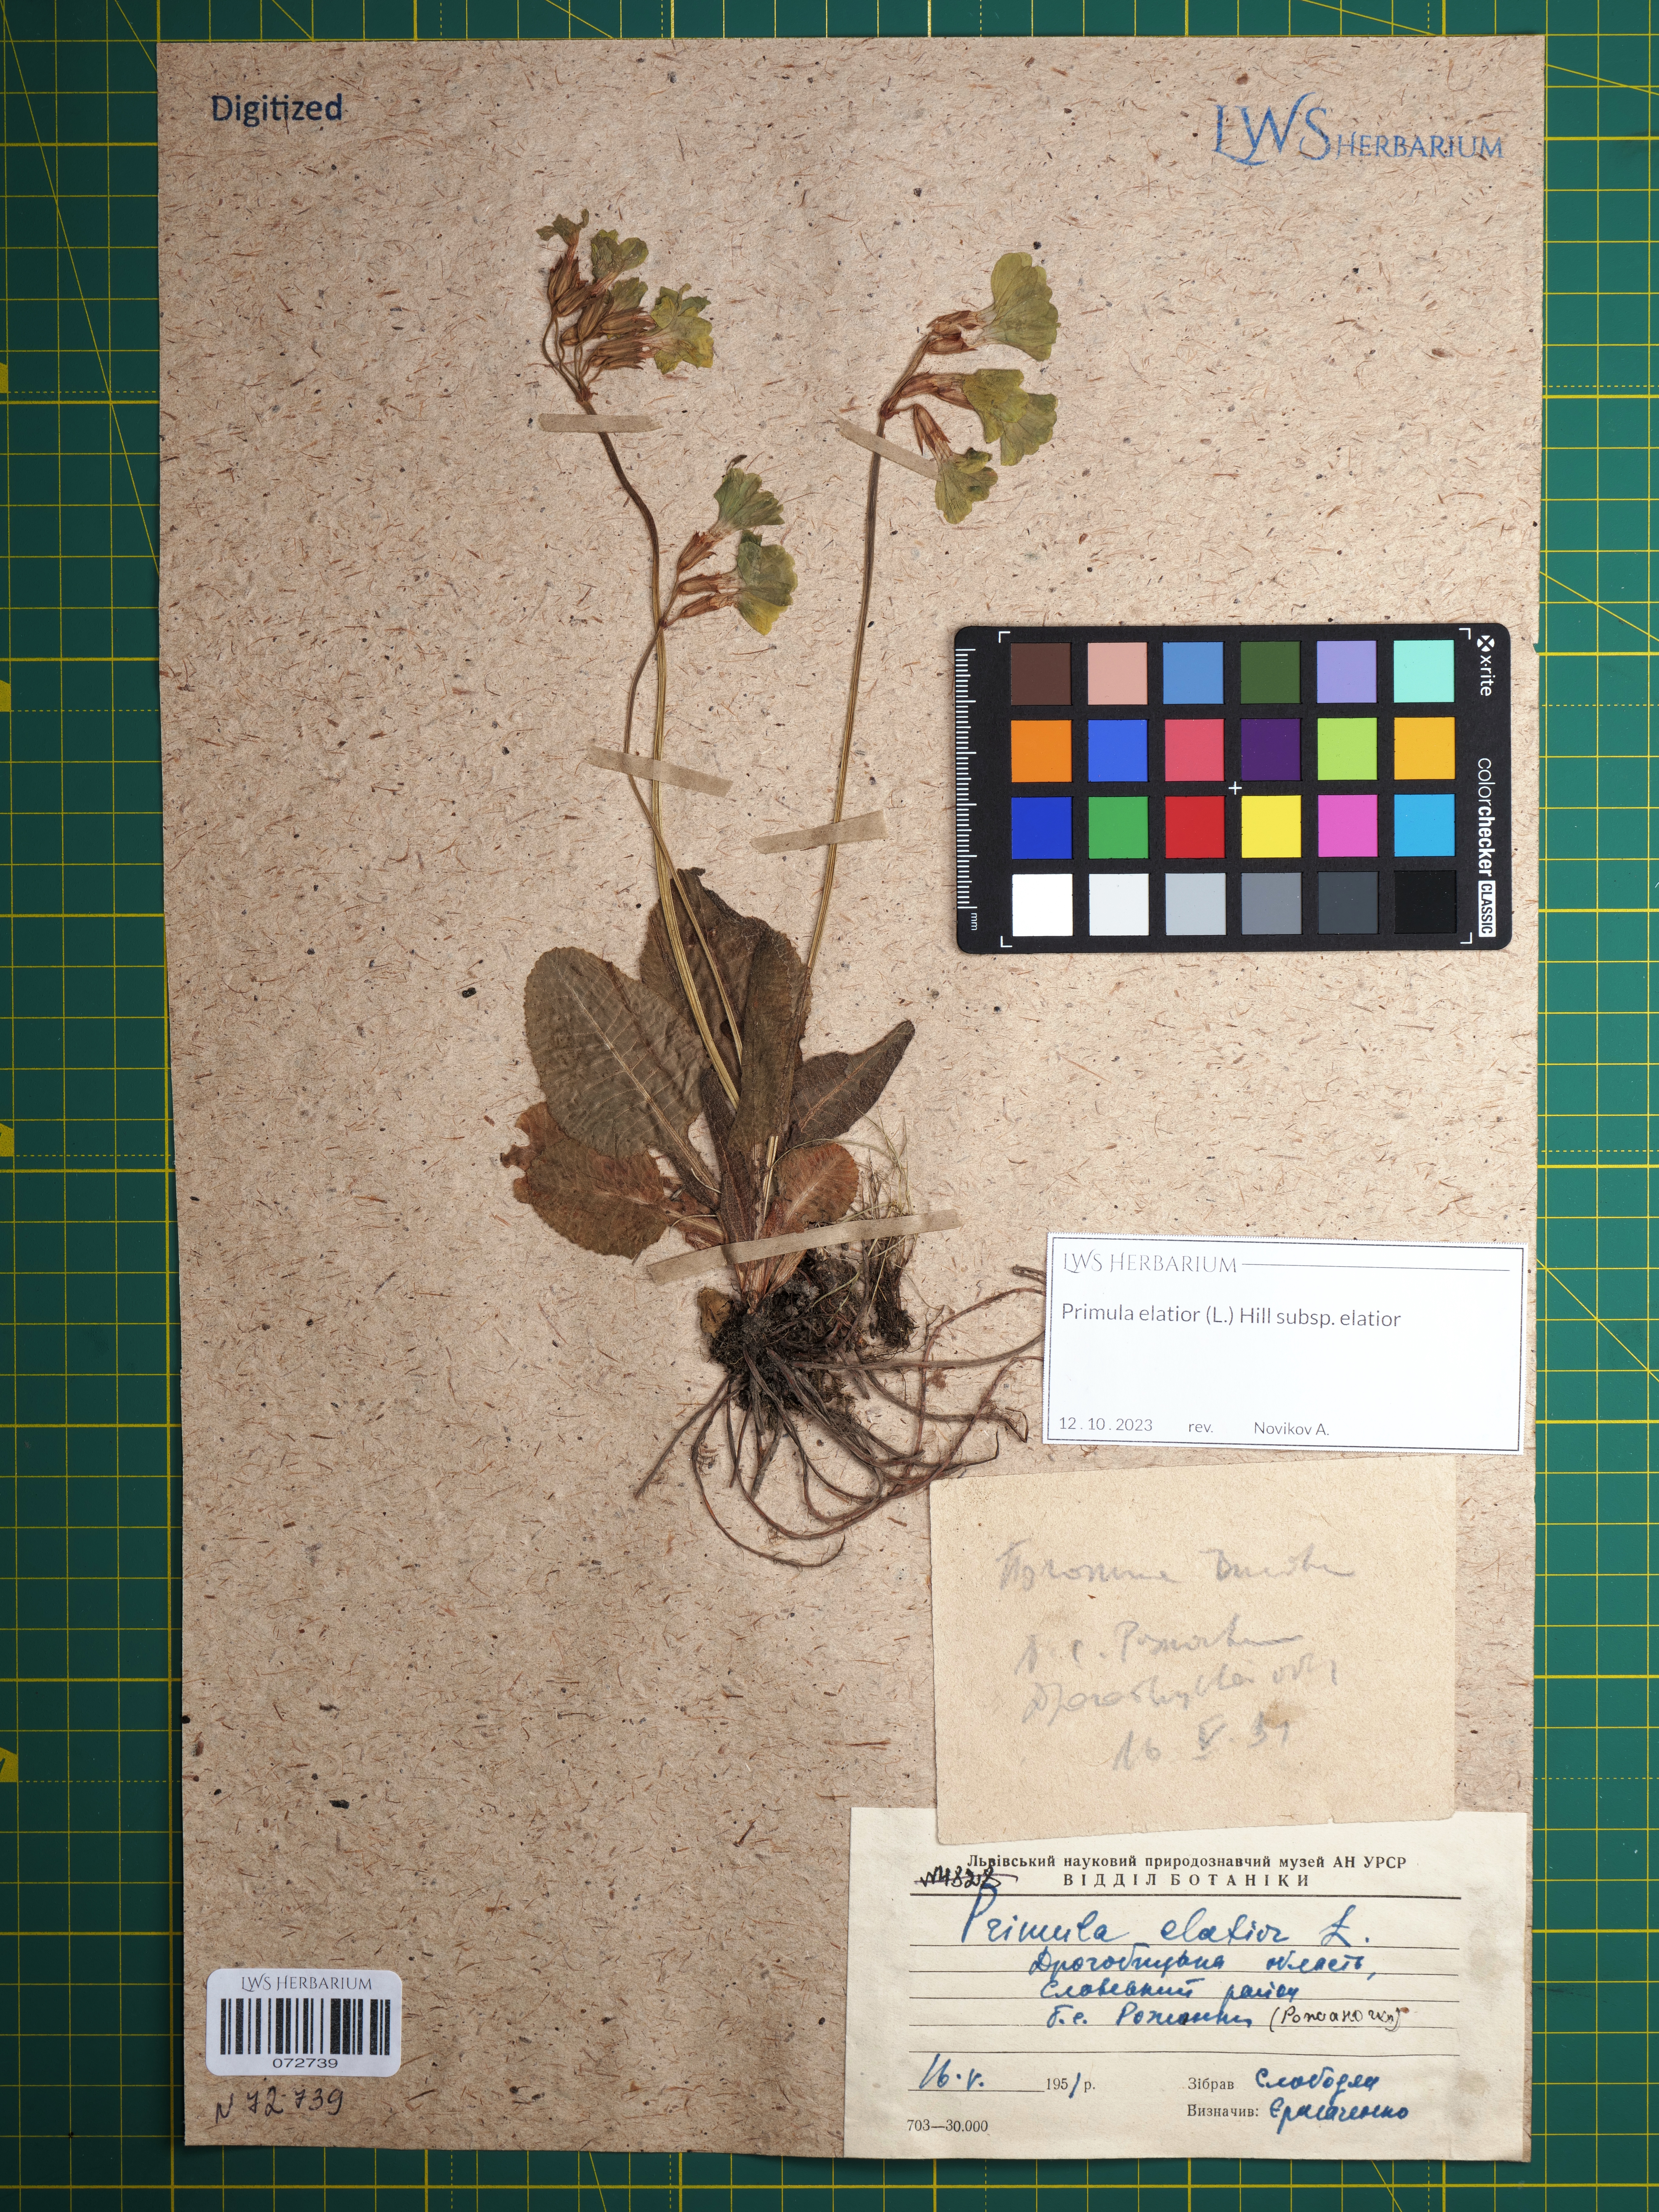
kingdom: Plantae
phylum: Tracheophyta
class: Magnoliopsida
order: Ericales
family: Primulaceae
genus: Primula
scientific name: Primula elatior
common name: Oxlip
